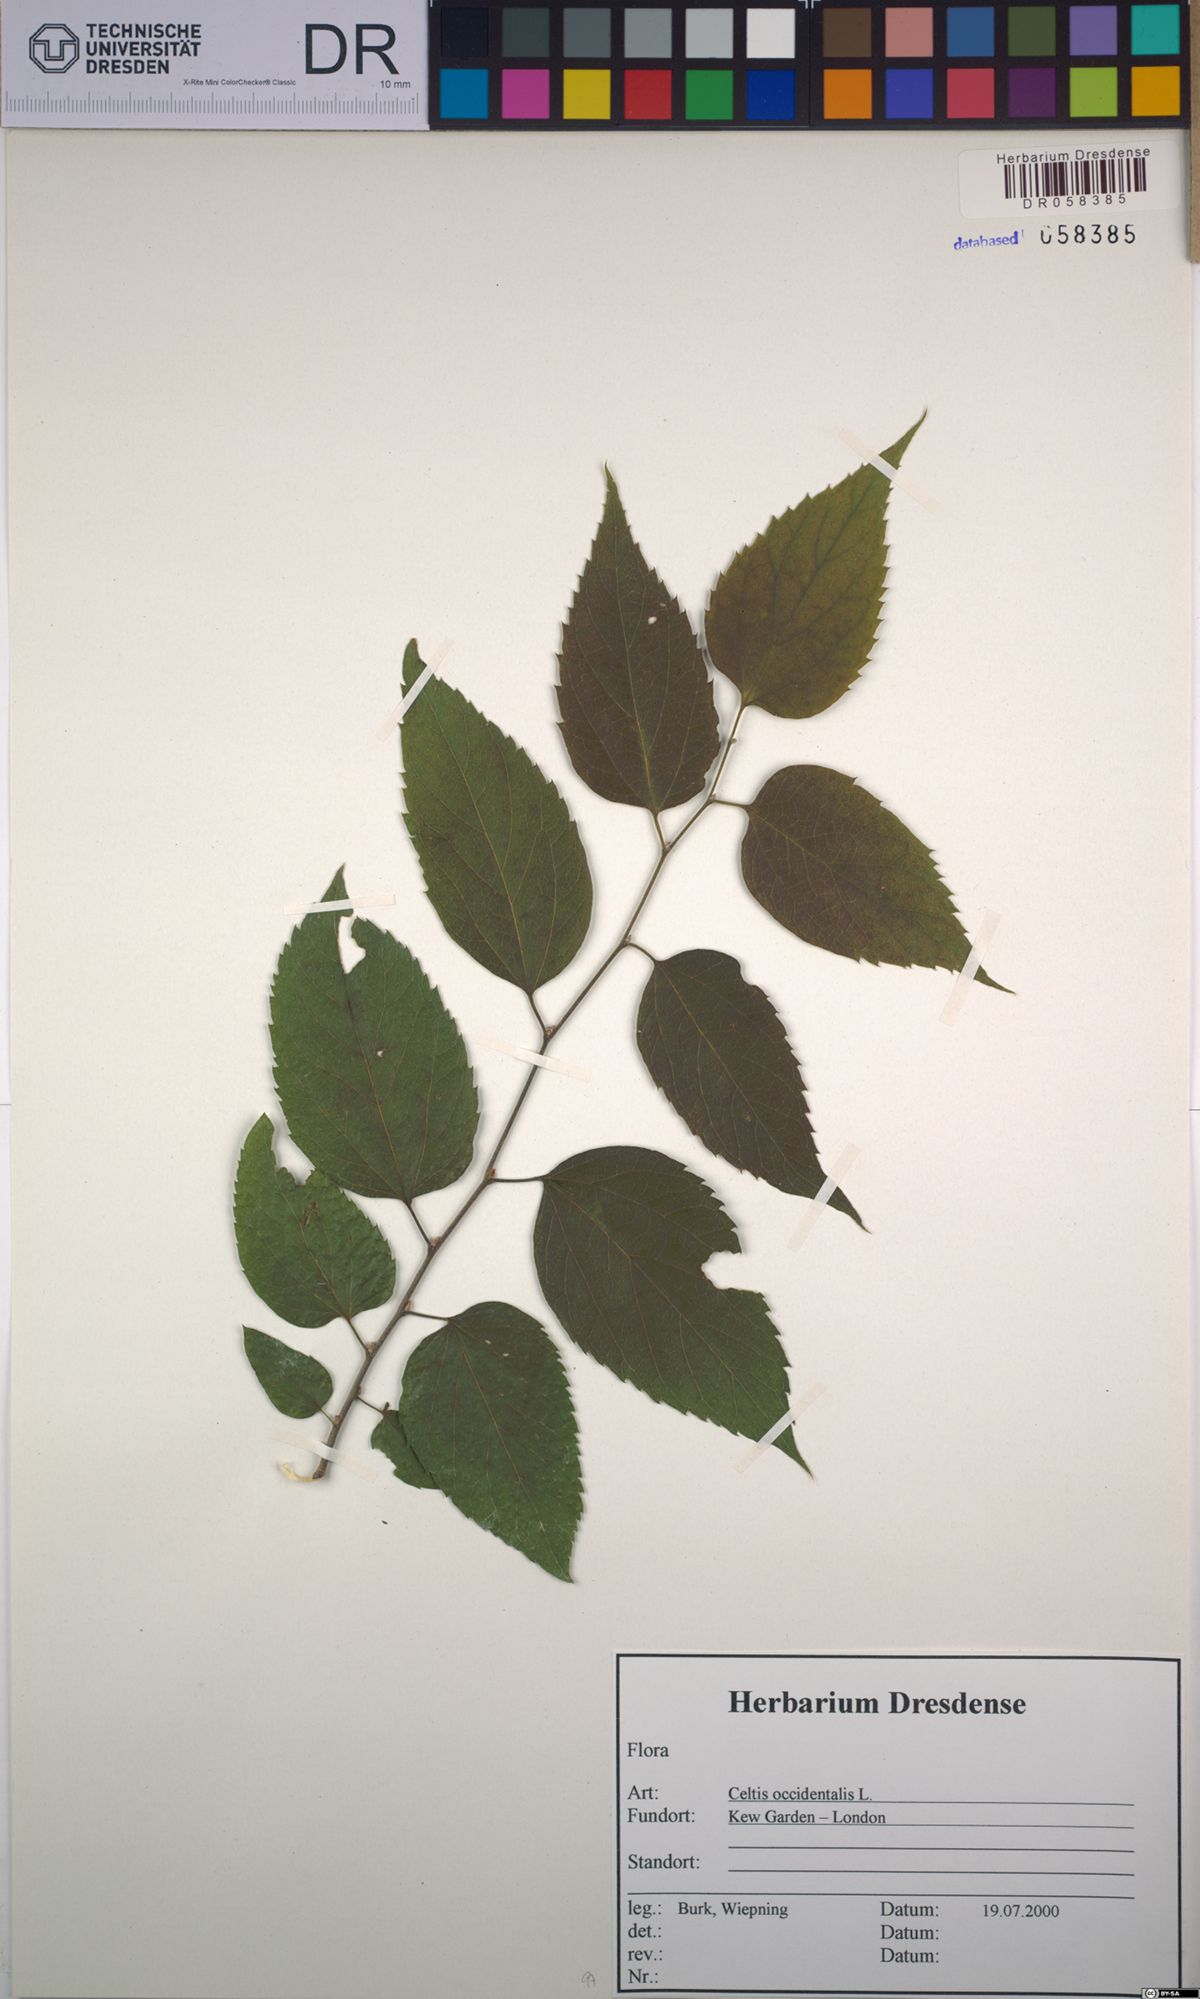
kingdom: Plantae
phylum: Tracheophyta
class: Magnoliopsida
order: Rosales
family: Cannabaceae
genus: Celtis
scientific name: Celtis occidentalis
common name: Common hackberry
